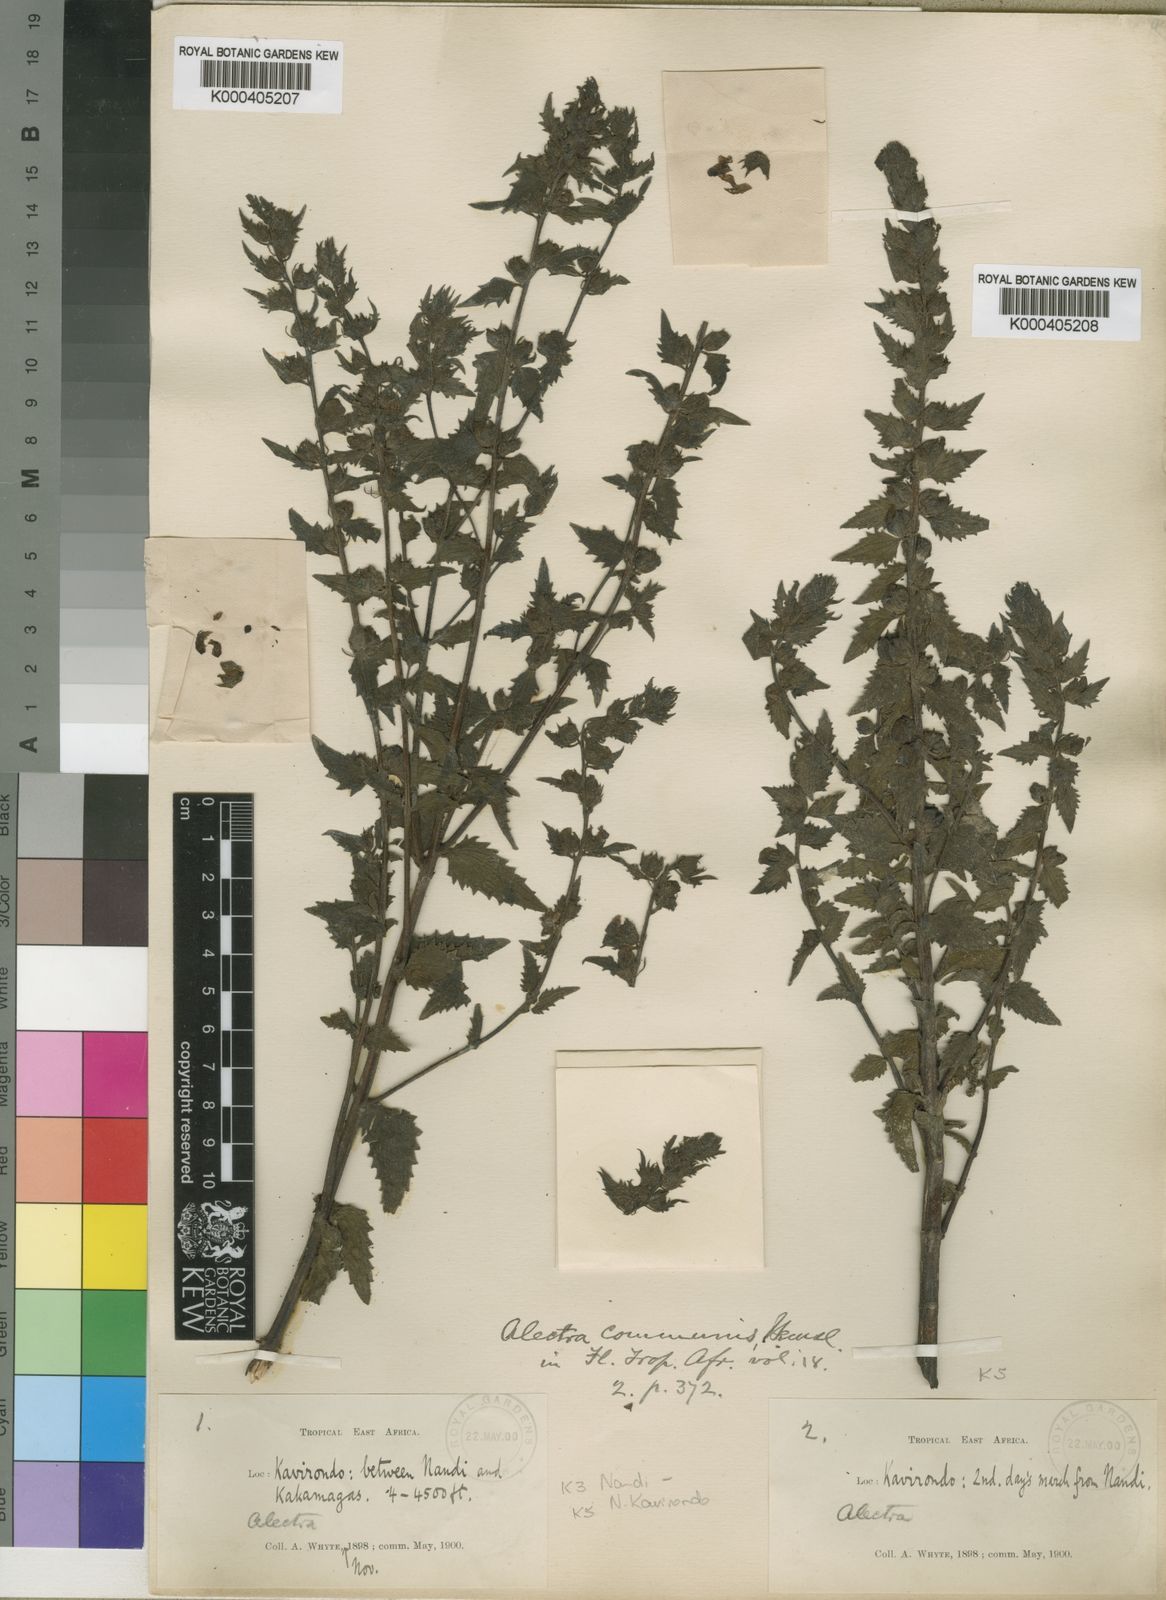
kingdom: Plantae
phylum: Tracheophyta
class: Magnoliopsida
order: Lamiales
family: Orobanchaceae
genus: Alectra
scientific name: Alectra sessiliflora
